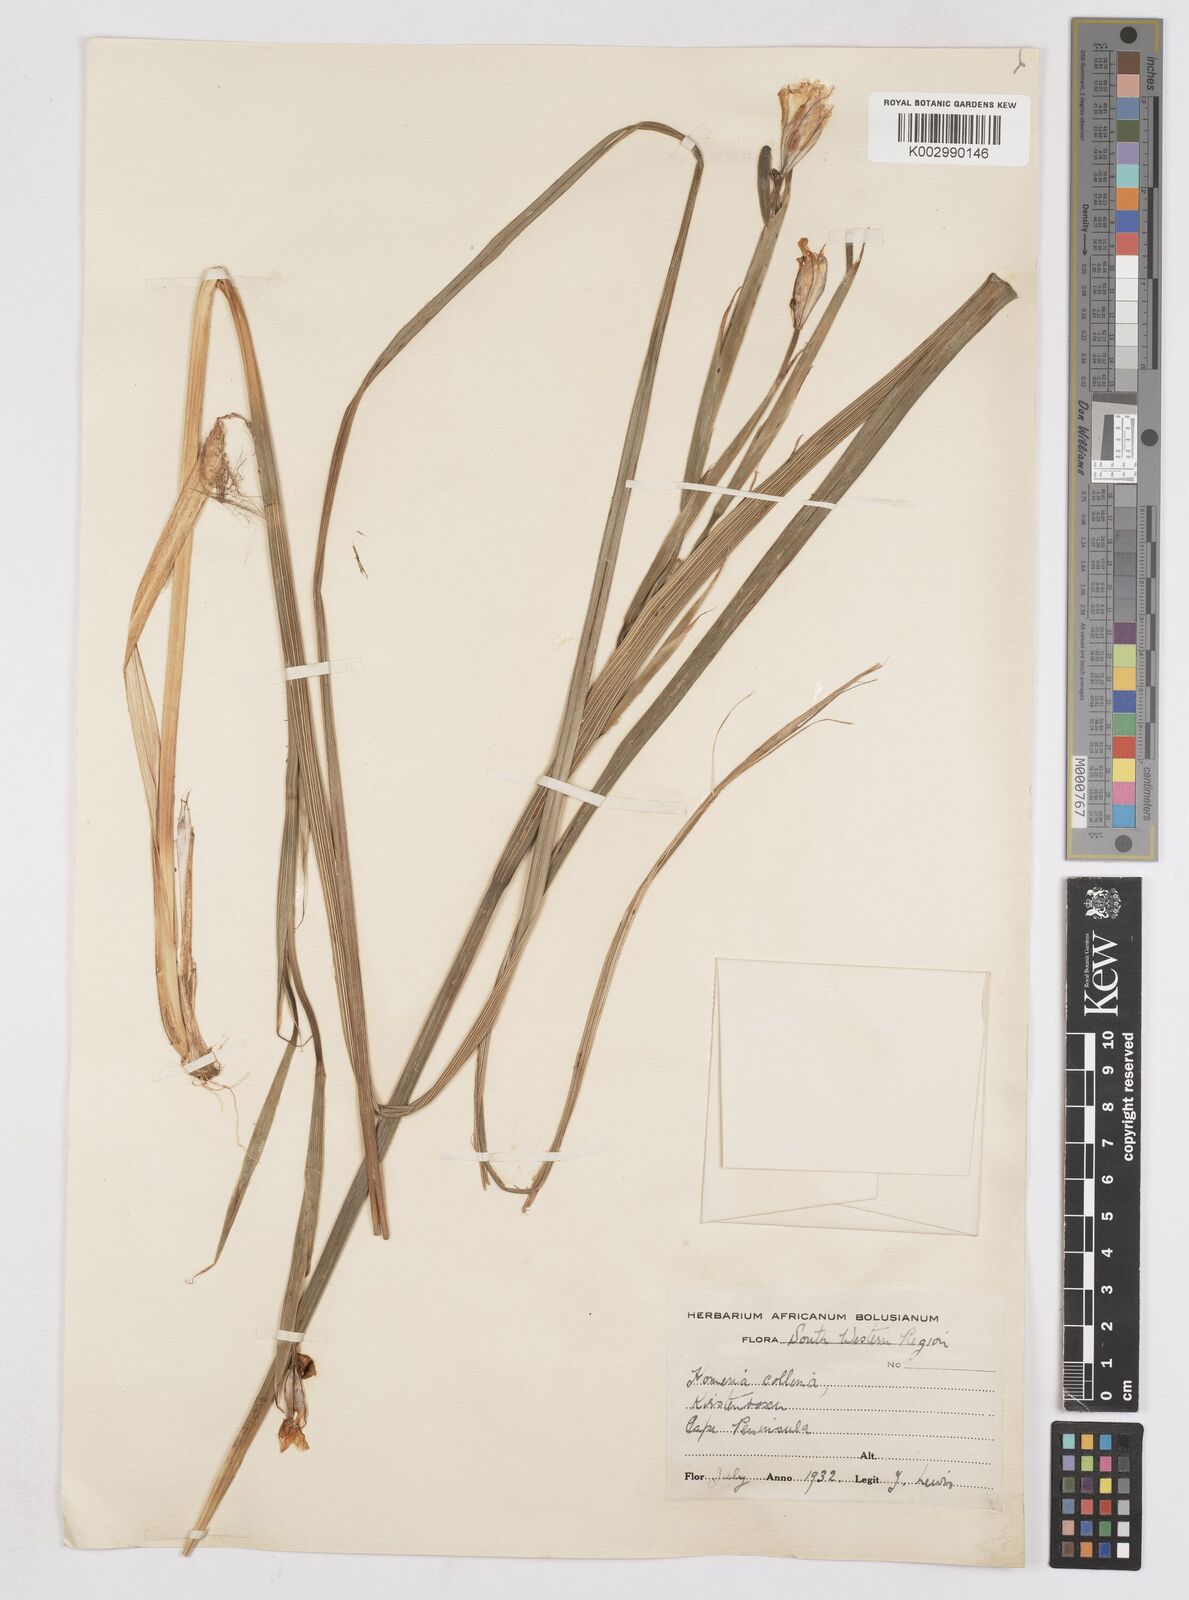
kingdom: Plantae
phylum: Tracheophyta
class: Liliopsida
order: Asparagales
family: Iridaceae
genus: Moraea
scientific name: Moraea collina
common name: Cape-tulip
